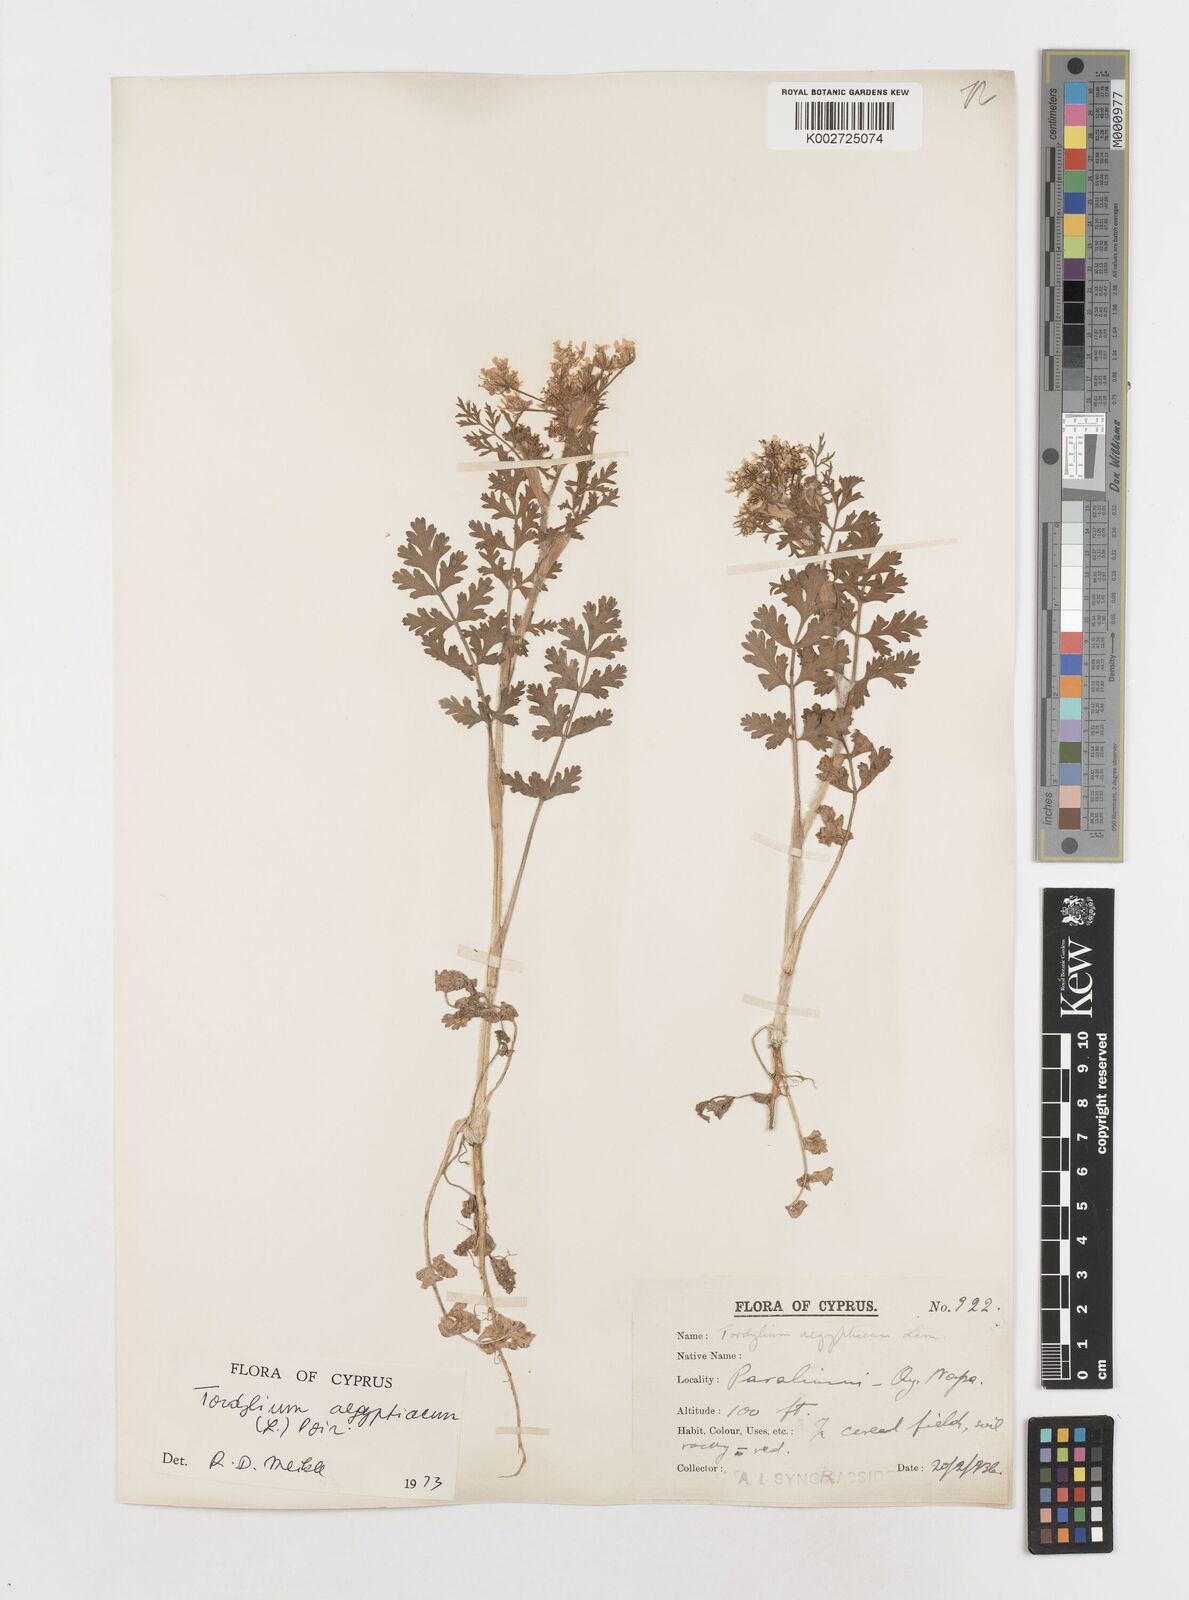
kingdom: Plantae
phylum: Tracheophyta
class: Magnoliopsida
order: Apiales
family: Apiaceae
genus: Tordylium
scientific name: Tordylium aegyptiacum
